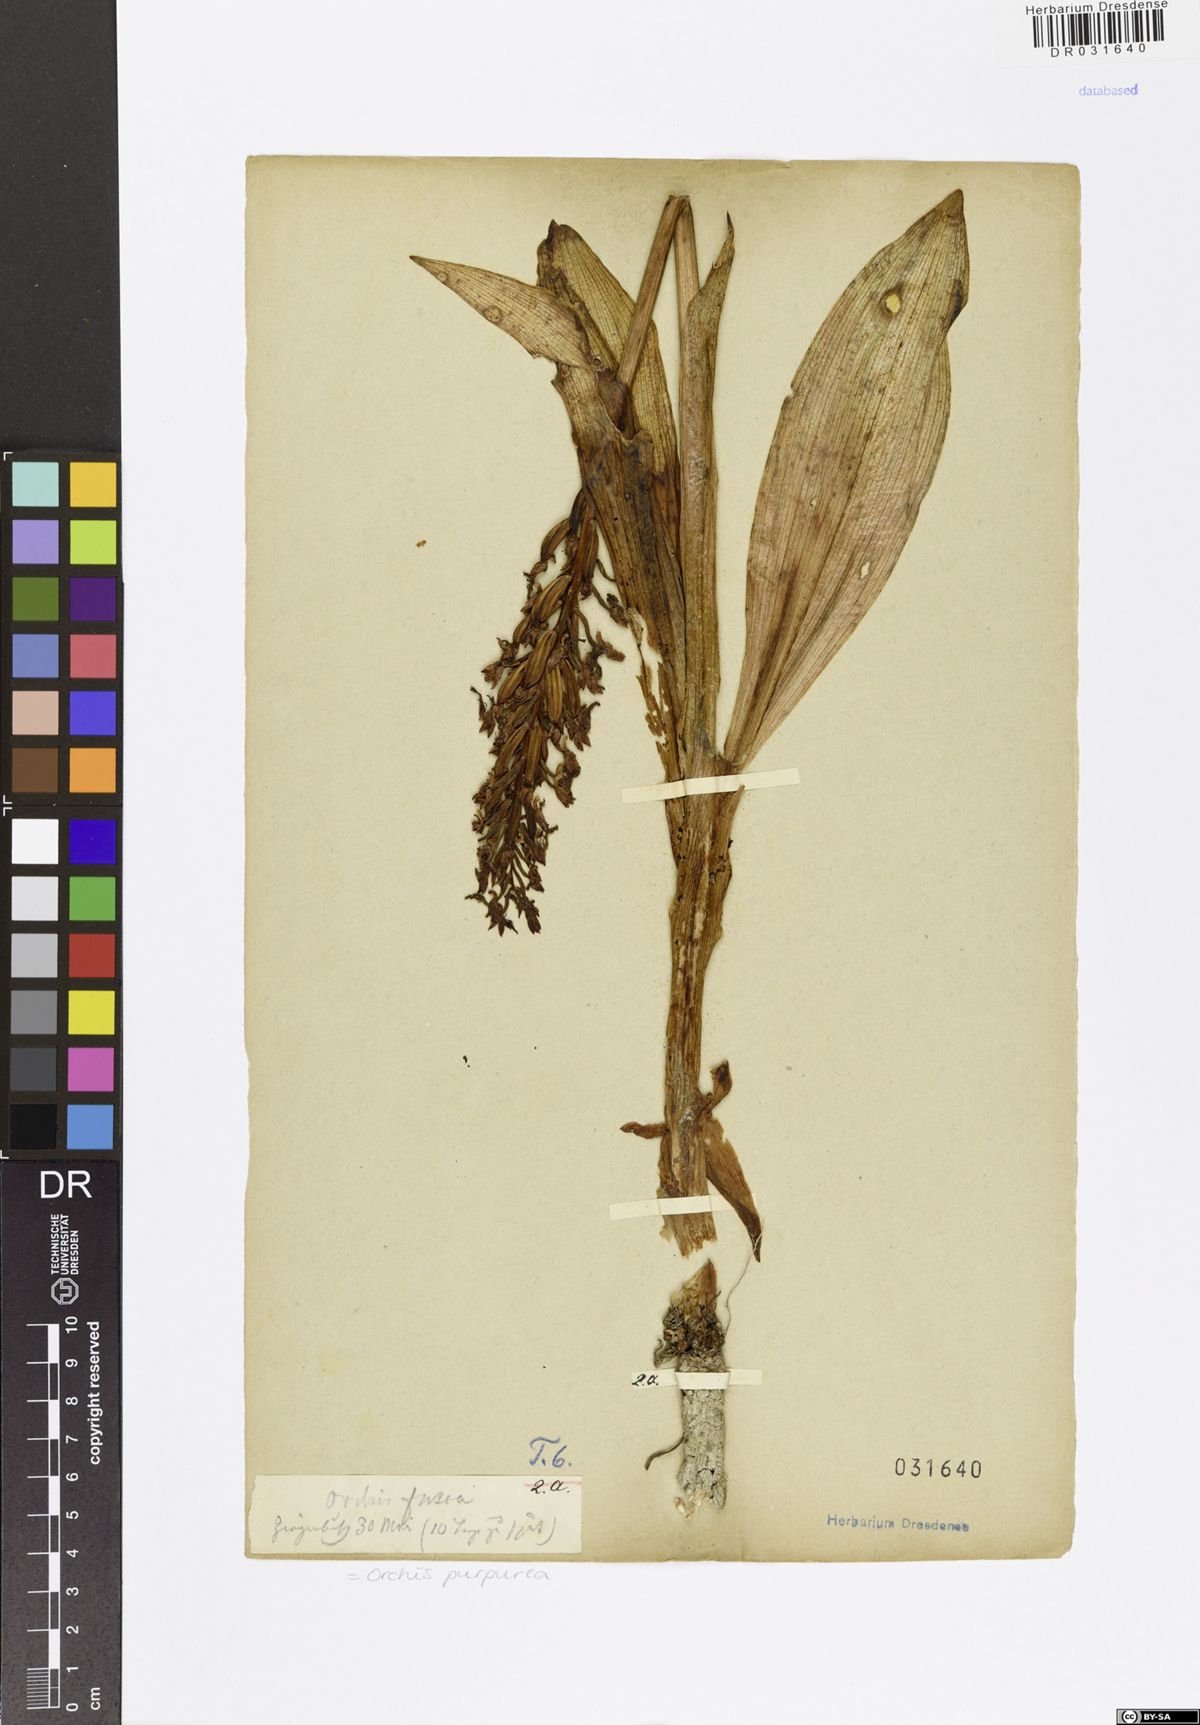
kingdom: Plantae
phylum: Tracheophyta
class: Liliopsida
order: Asparagales
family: Orchidaceae
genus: Orchis
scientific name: Orchis purpurea
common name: Lady orchid
